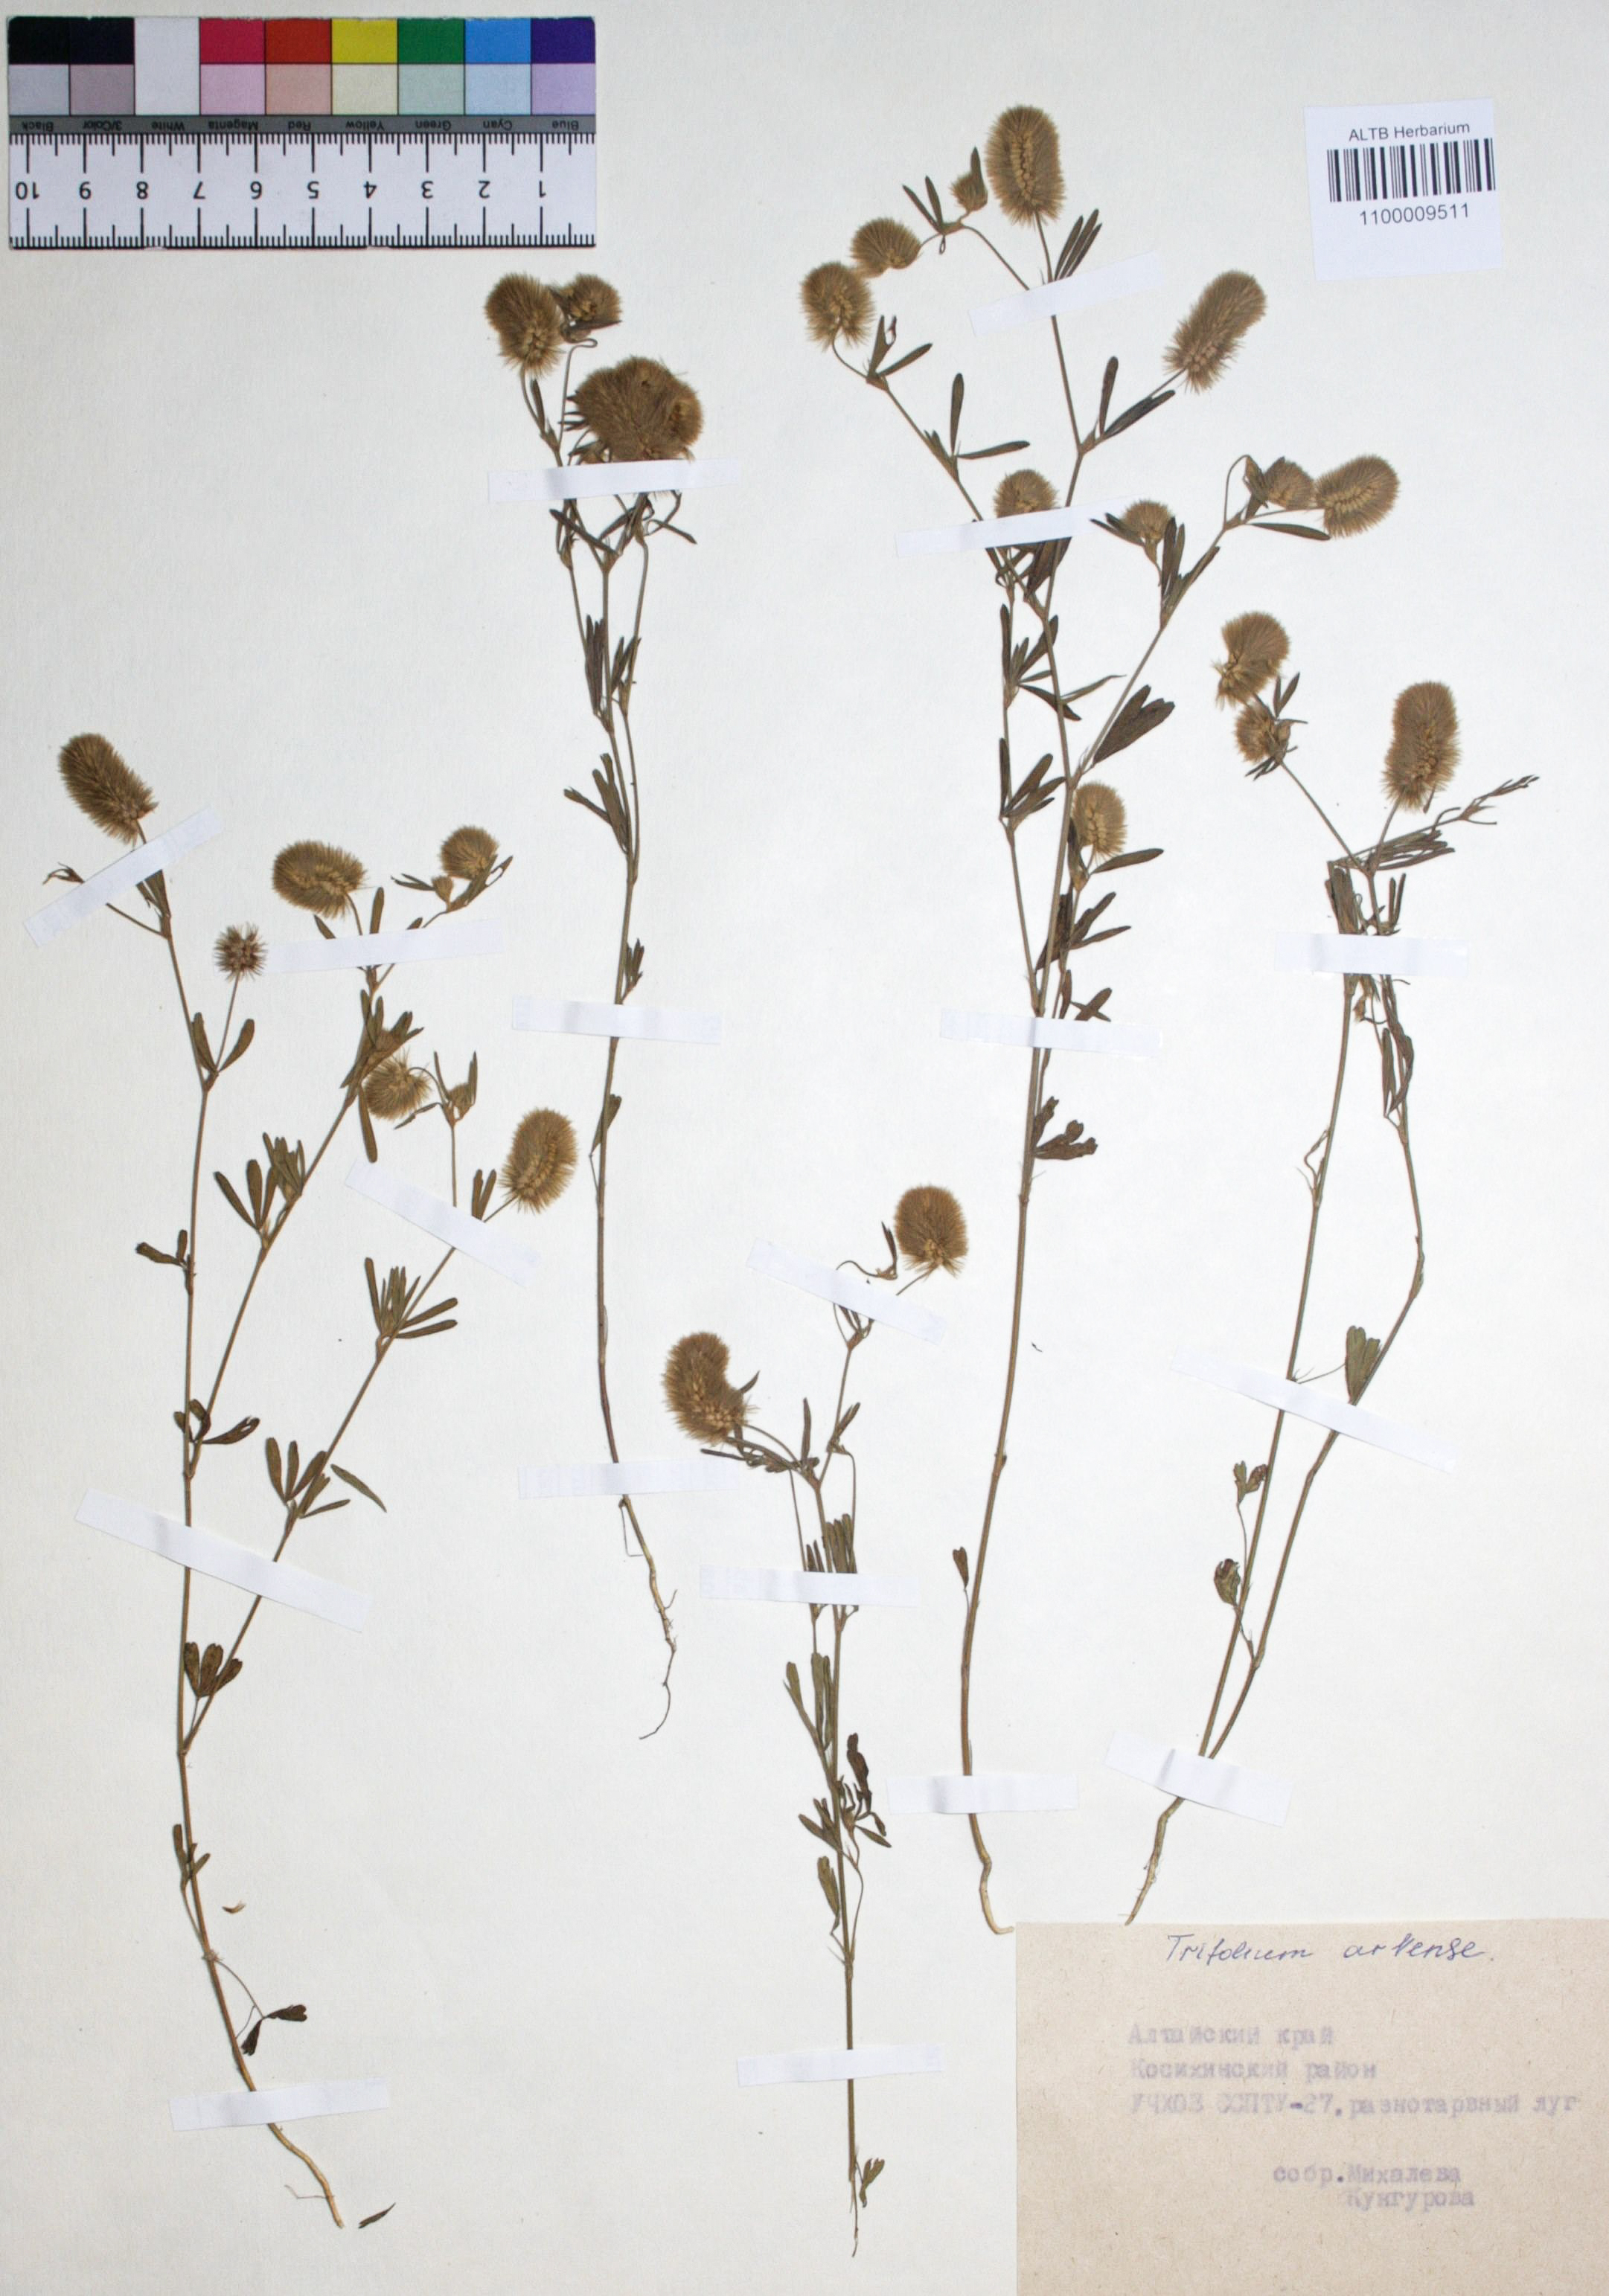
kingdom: Plantae
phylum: Tracheophyta
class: Magnoliopsida
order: Fabales
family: Fabaceae
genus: Trifolium
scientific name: Trifolium arvense
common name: Hare's-foot clover
